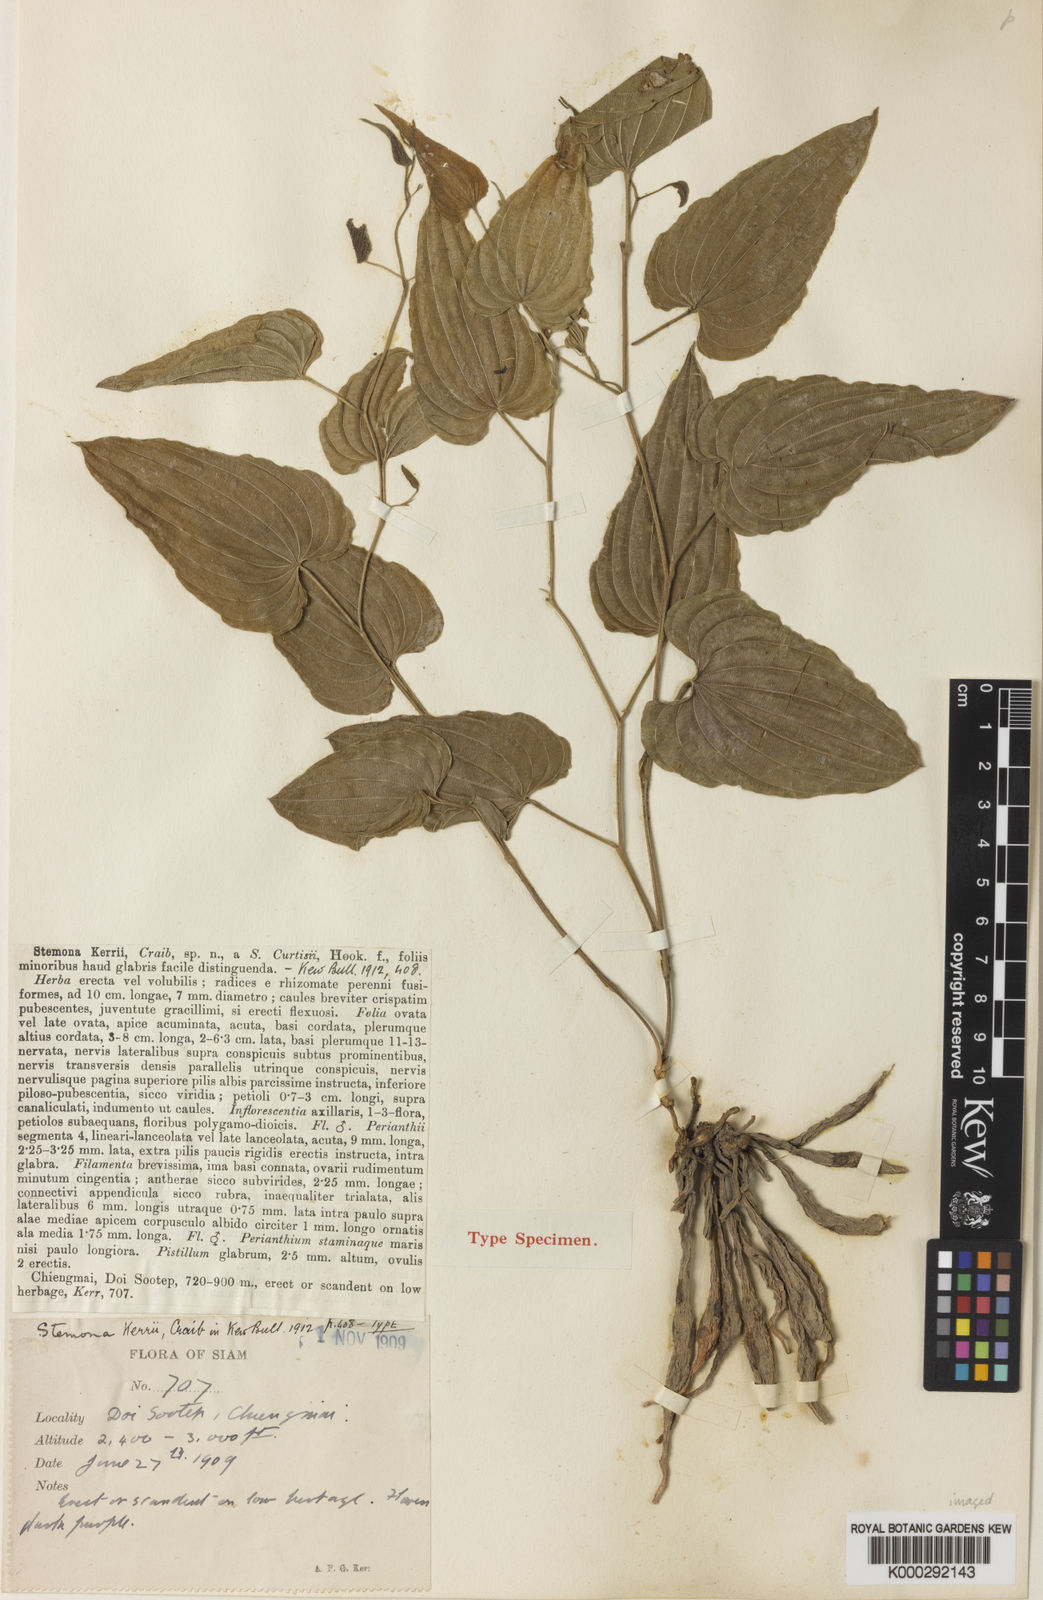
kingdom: Plantae
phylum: Tracheophyta
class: Liliopsida
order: Pandanales
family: Stemonaceae
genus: Stemona
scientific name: Stemona kerrii
